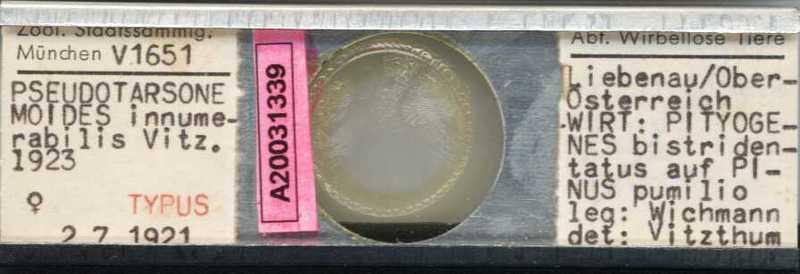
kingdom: Animalia
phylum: Arthropoda
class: Arachnida
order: Trombidiformes
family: Tarsonemidae
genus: Pseudotarsonemoides
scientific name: Pseudotarsonemoides innumerabilis
